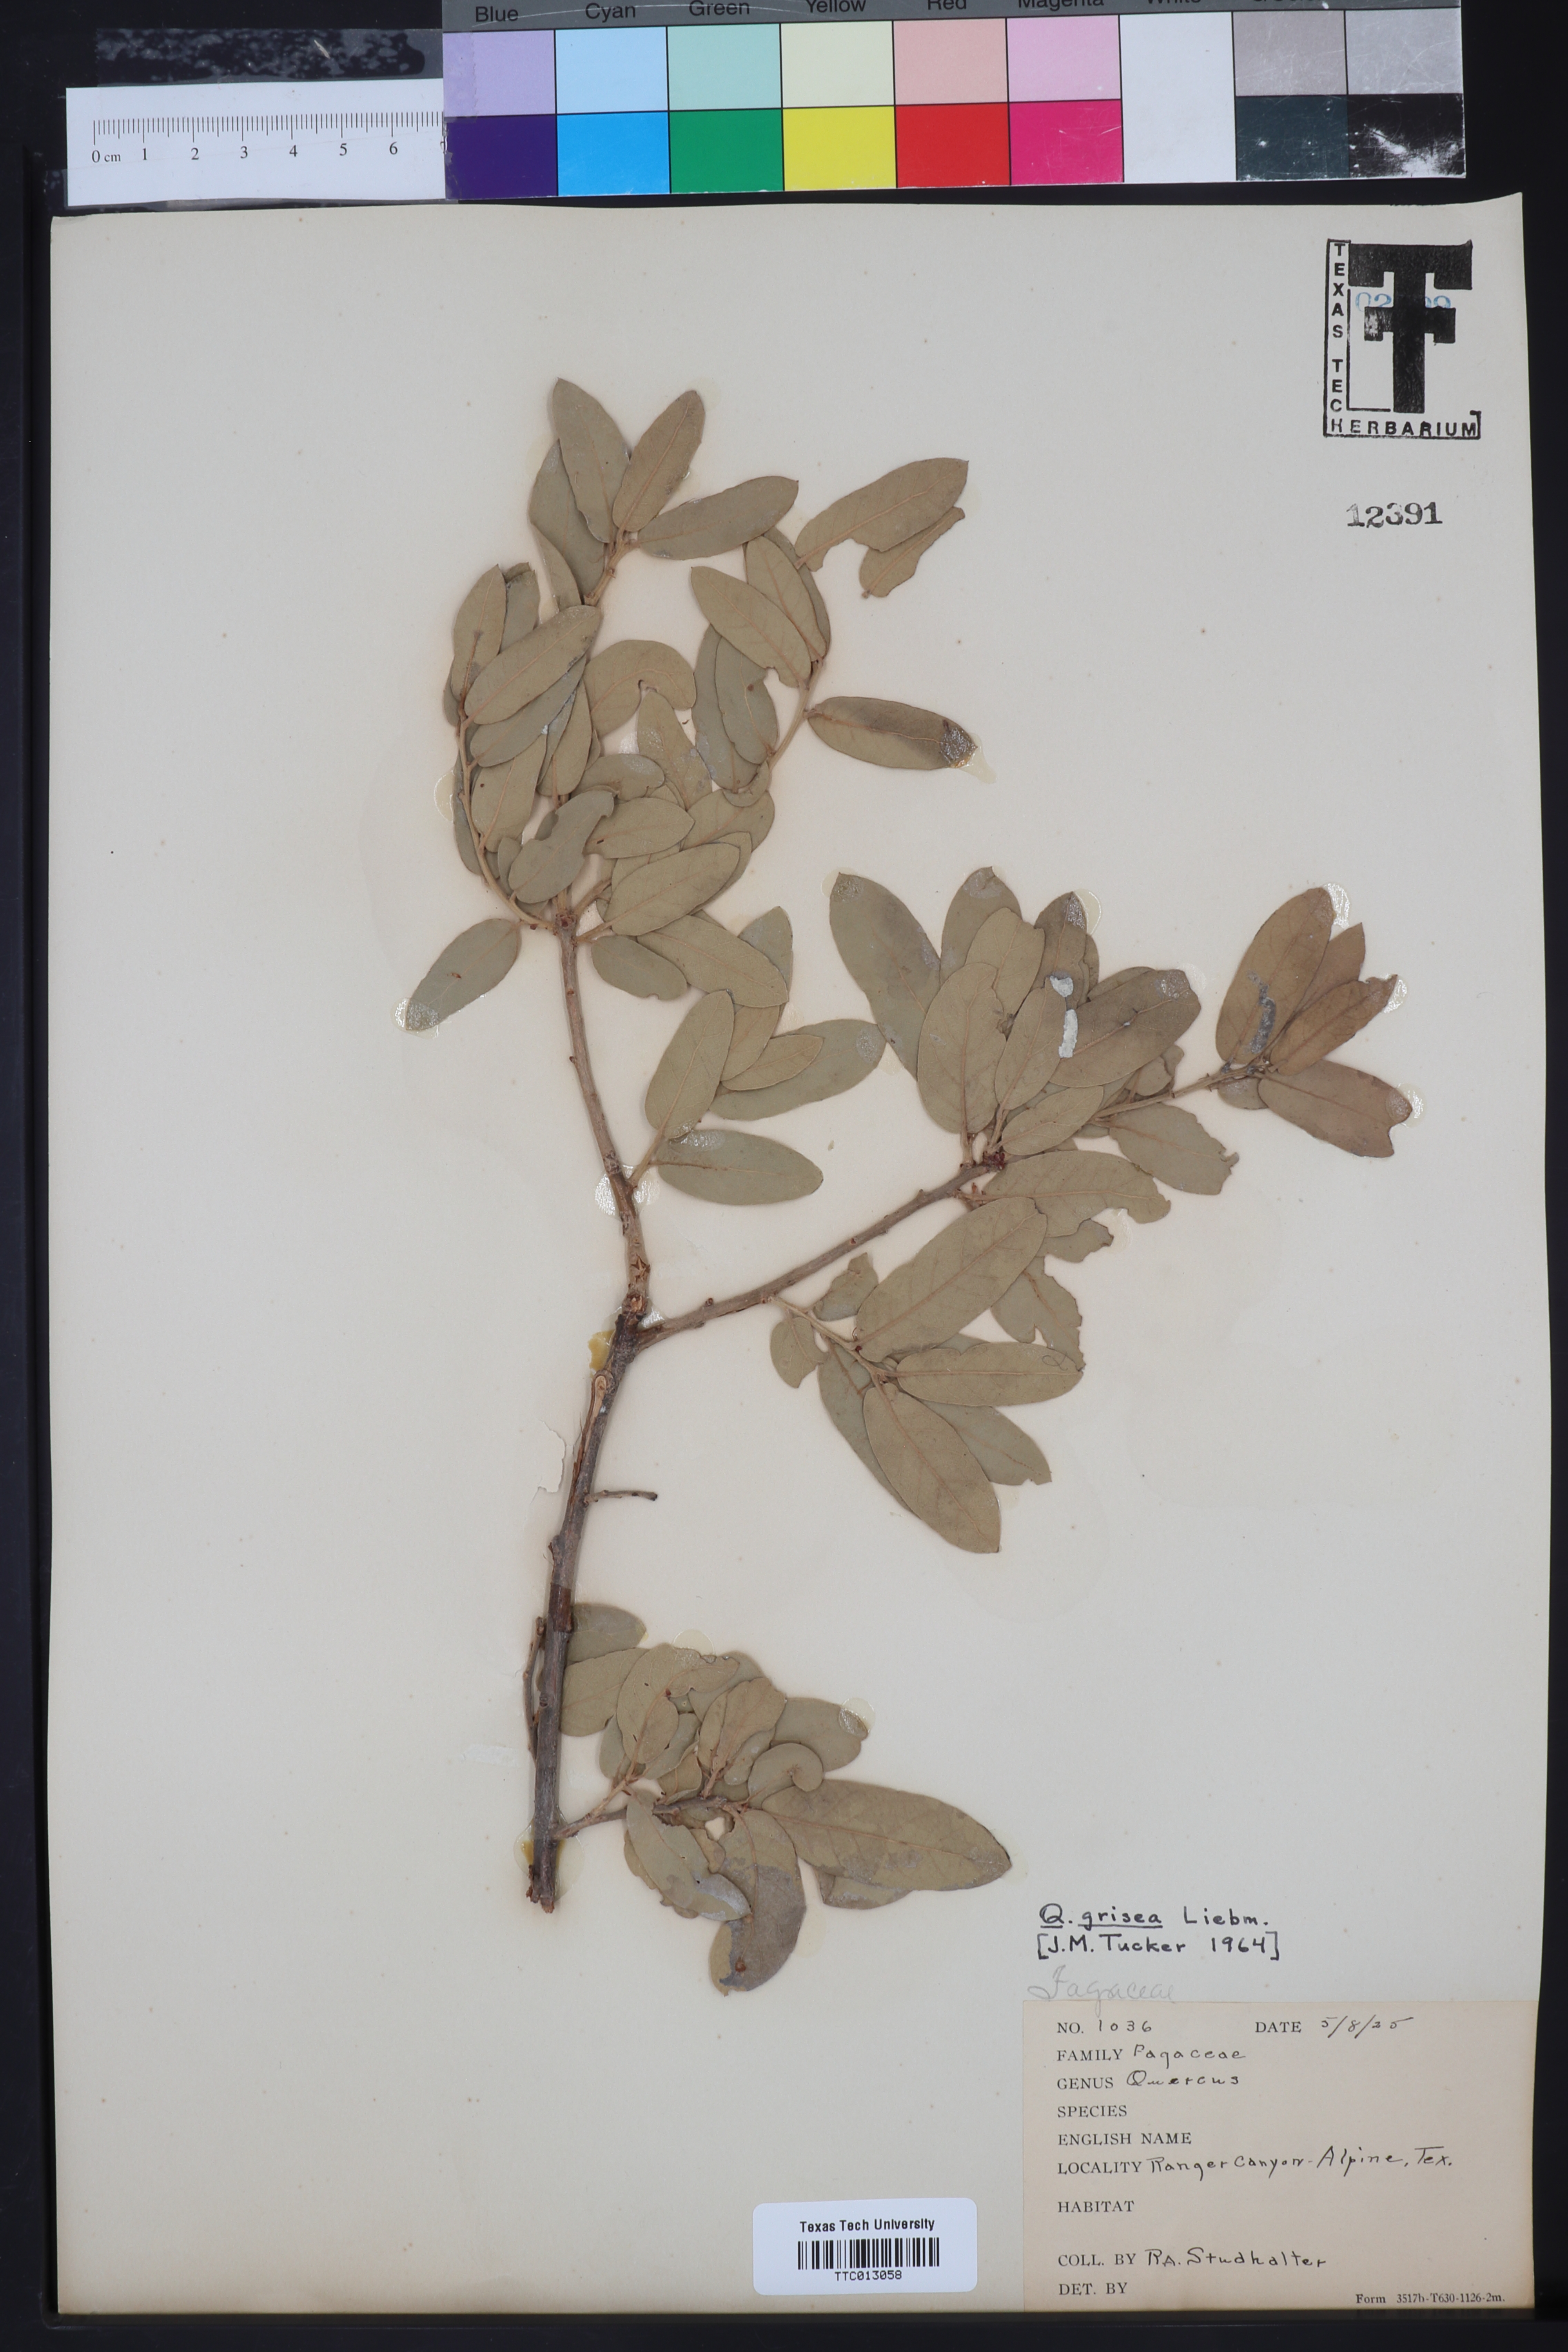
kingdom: Plantae
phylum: Tracheophyta
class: Magnoliopsida
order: Fagales
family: Fagaceae
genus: Quercus
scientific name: Quercus grisea
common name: Gray oak
